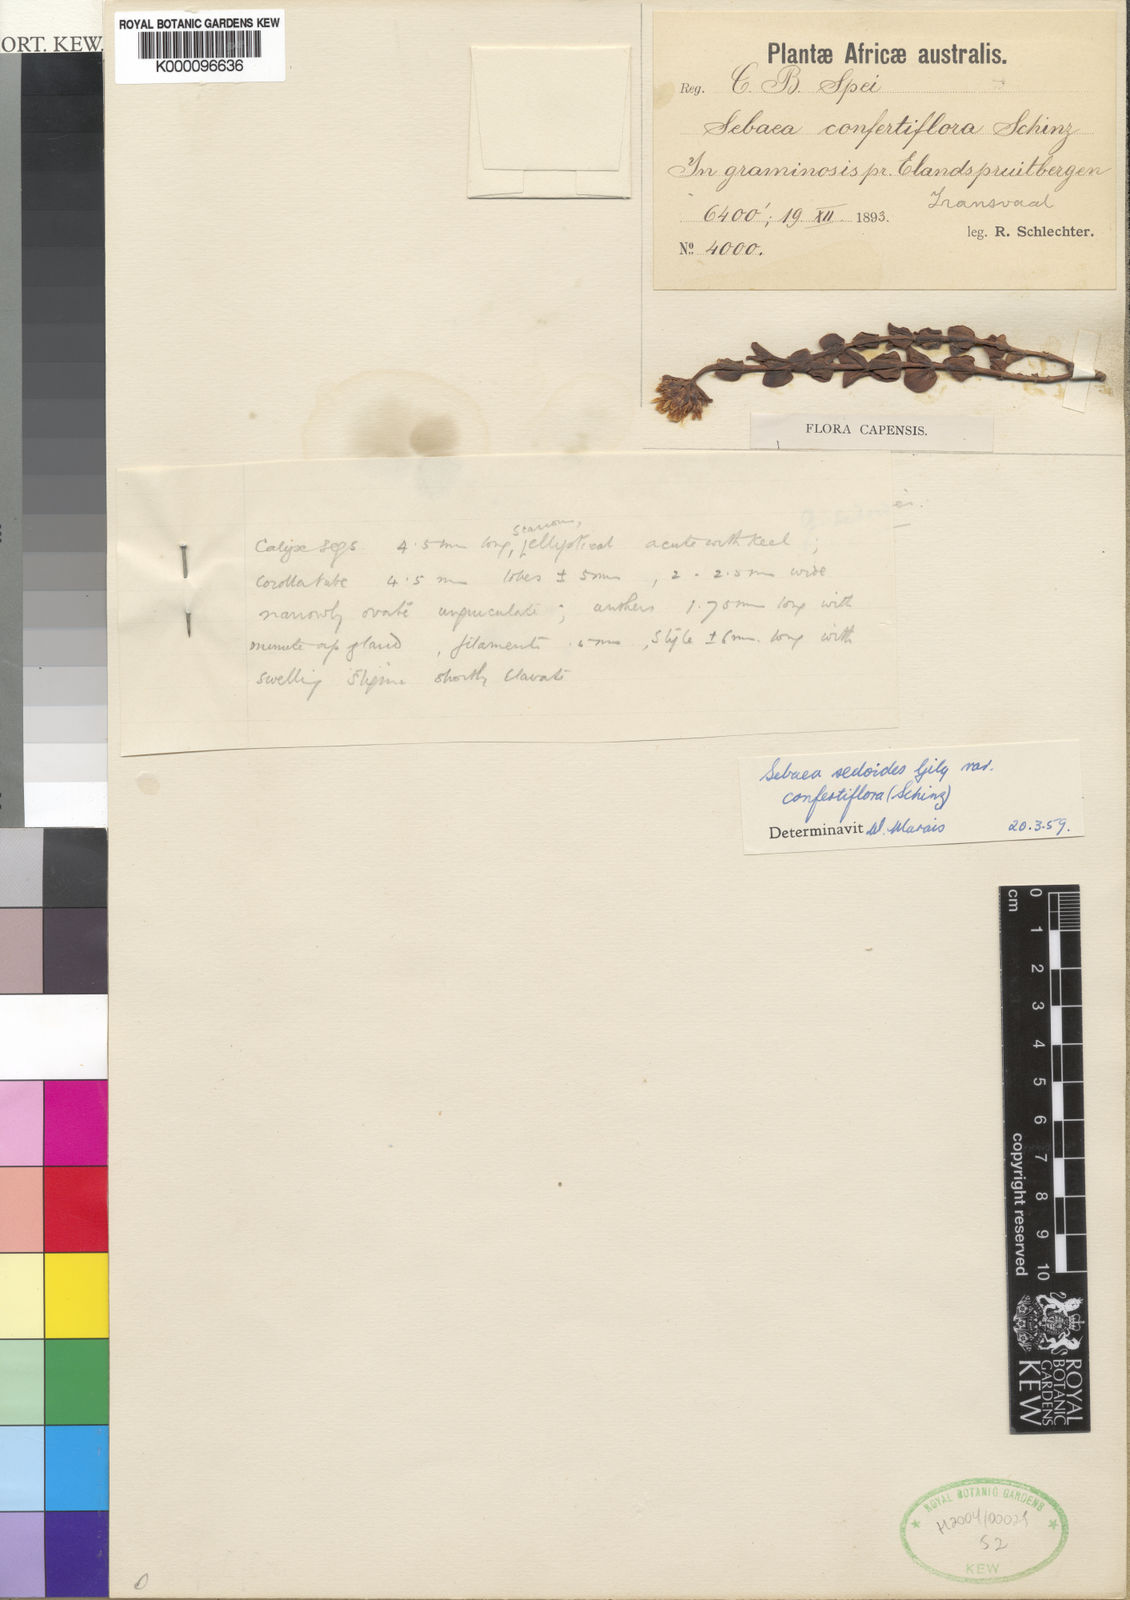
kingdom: Plantae
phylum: Tracheophyta
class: Magnoliopsida
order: Gentianales
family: Gentianaceae
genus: Sebaea
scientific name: Sebaea sedoides
